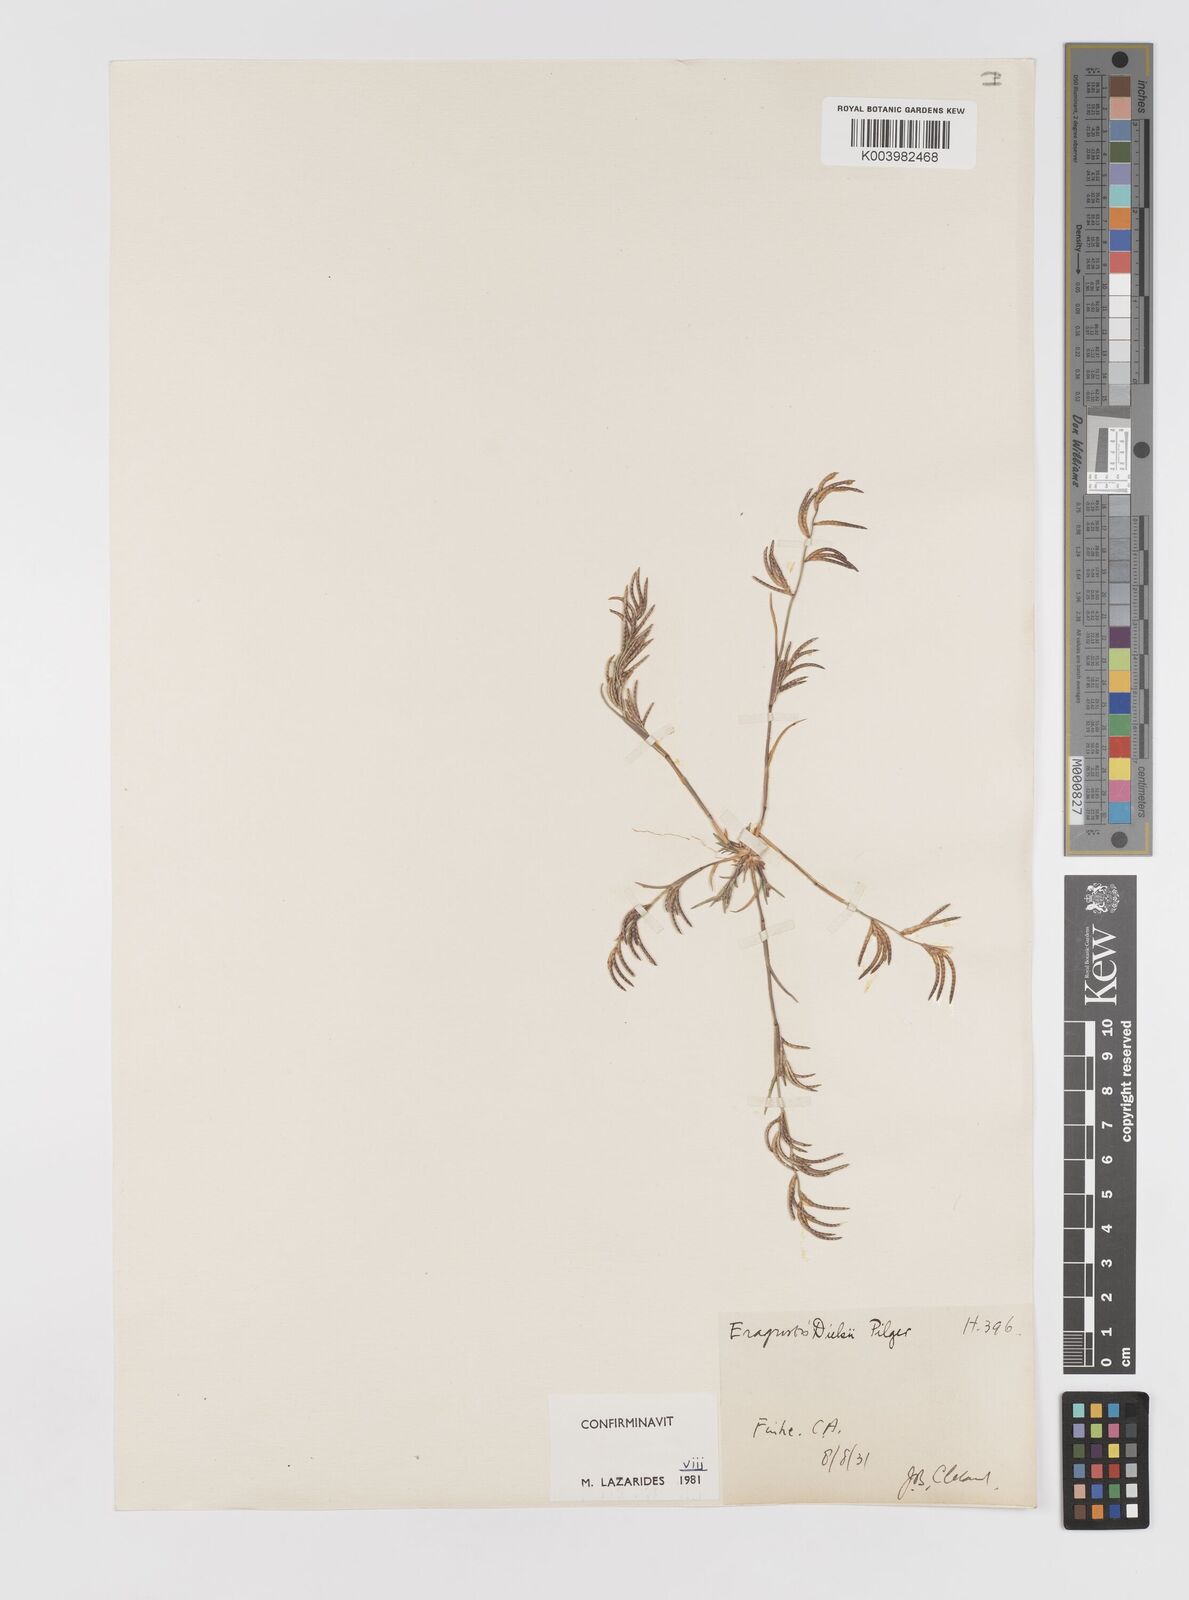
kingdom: Plantae
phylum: Tracheophyta
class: Liliopsida
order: Poales
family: Poaceae
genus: Eragrostis
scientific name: Eragrostis dielsii
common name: Lovegrass
